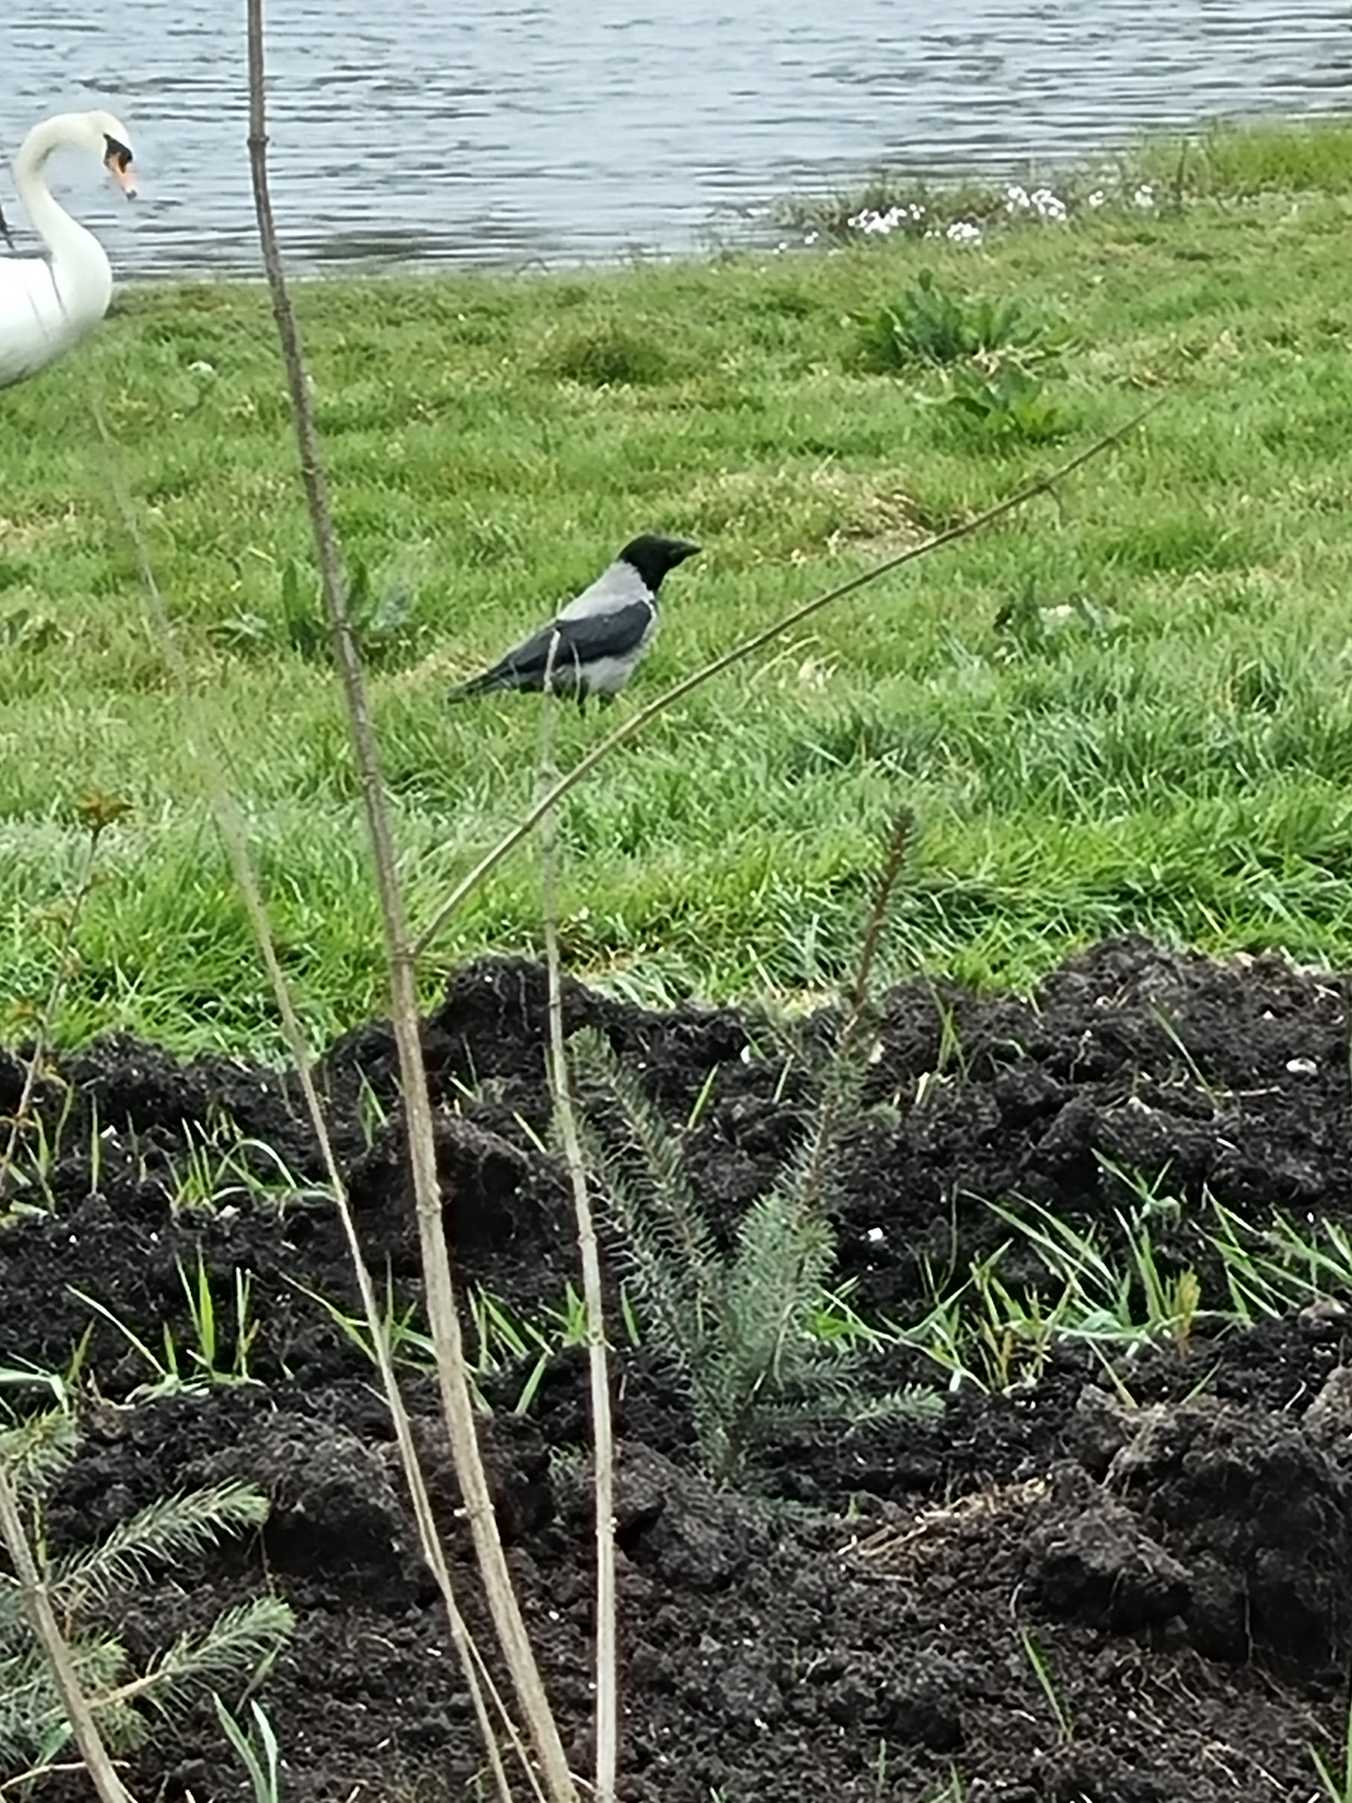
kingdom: Animalia
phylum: Chordata
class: Aves
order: Passeriformes
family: Corvidae
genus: Corvus
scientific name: Corvus cornix
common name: Gråkrage
